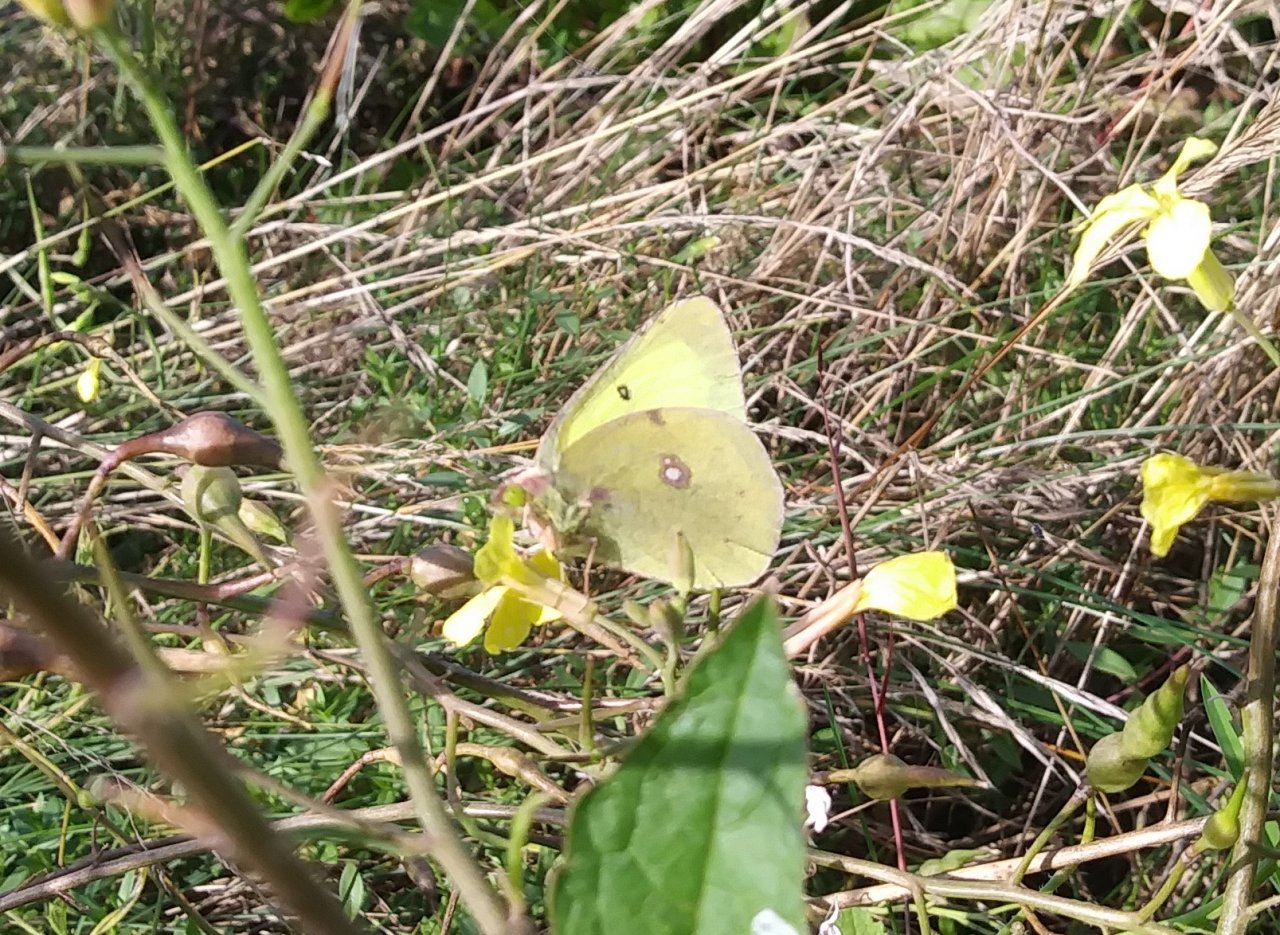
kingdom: Animalia
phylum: Arthropoda
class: Insecta
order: Lepidoptera
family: Pieridae
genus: Colias
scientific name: Colias philodice
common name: Clouded Sulphur
